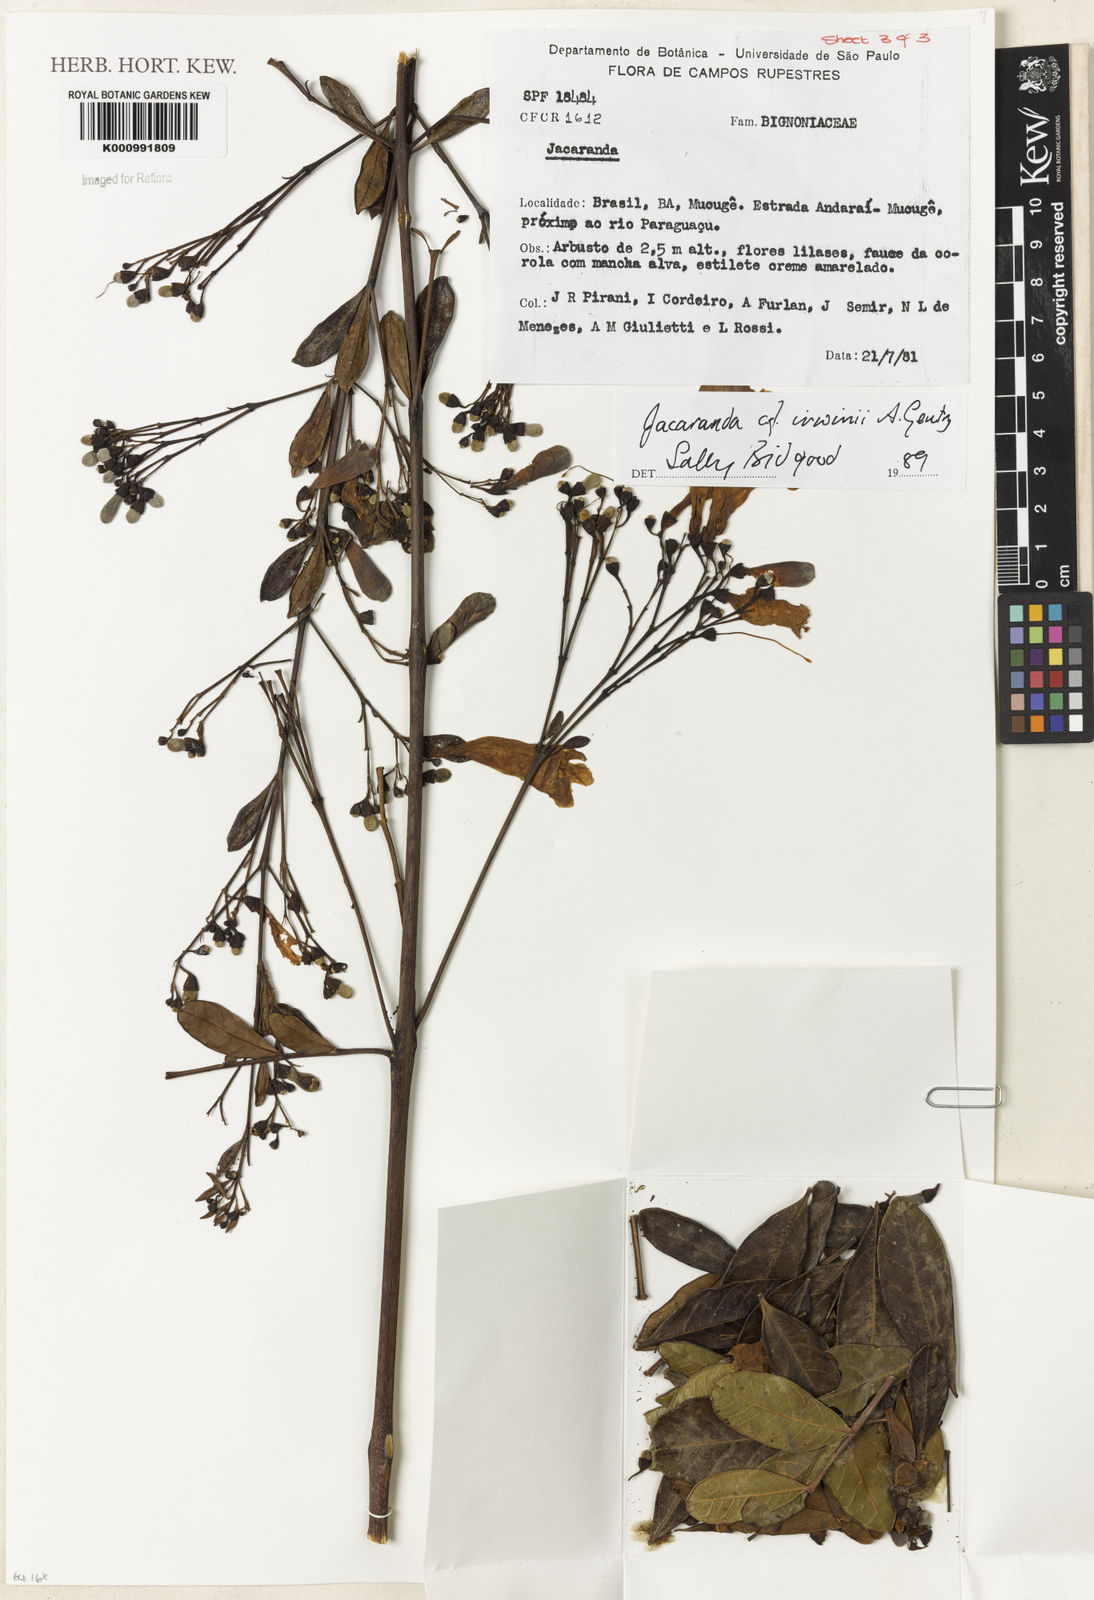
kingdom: Plantae
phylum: Tracheophyta
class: Magnoliopsida
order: Lamiales
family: Bignoniaceae
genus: Jacaranda
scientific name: Jacaranda irwinii
